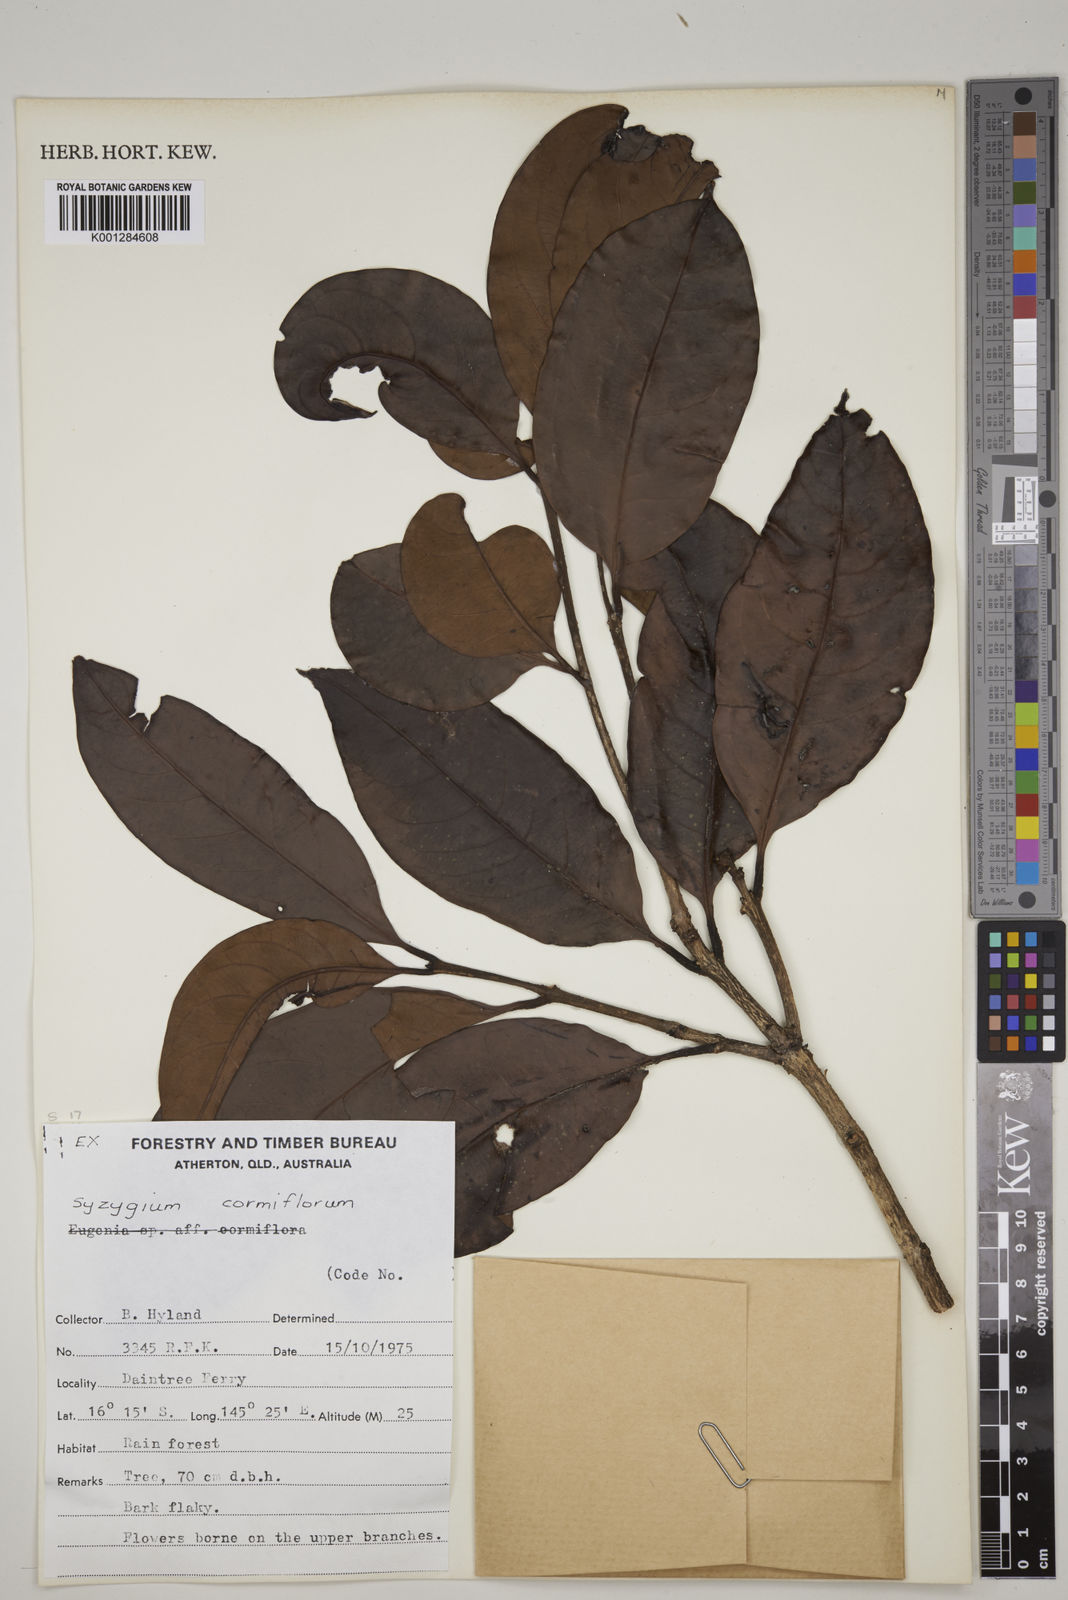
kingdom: Plantae
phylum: Tracheophyta
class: Magnoliopsida
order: Myrtales
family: Myrtaceae
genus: Syzygium
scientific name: Syzygium cormiflorum
